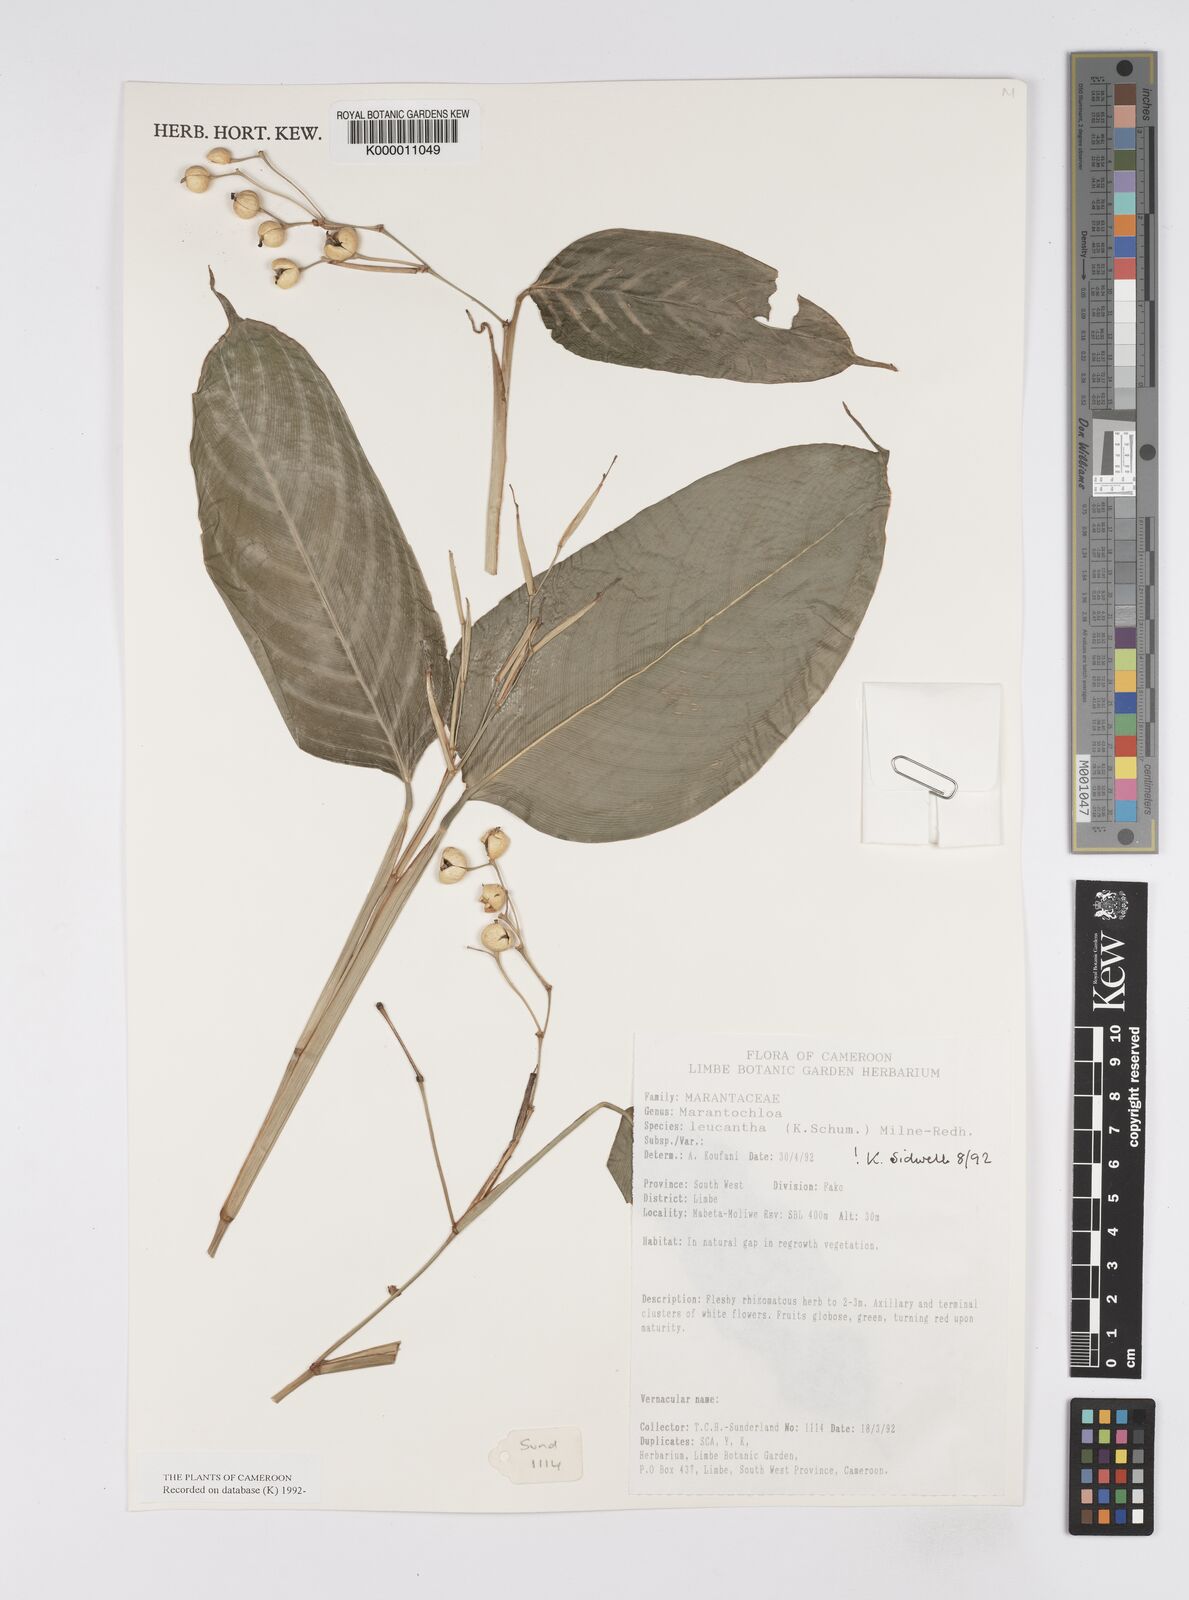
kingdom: Plantae
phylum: Tracheophyta
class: Liliopsida
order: Zingiberales
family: Marantaceae
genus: Marantochloa
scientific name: Marantochloa leucantha
